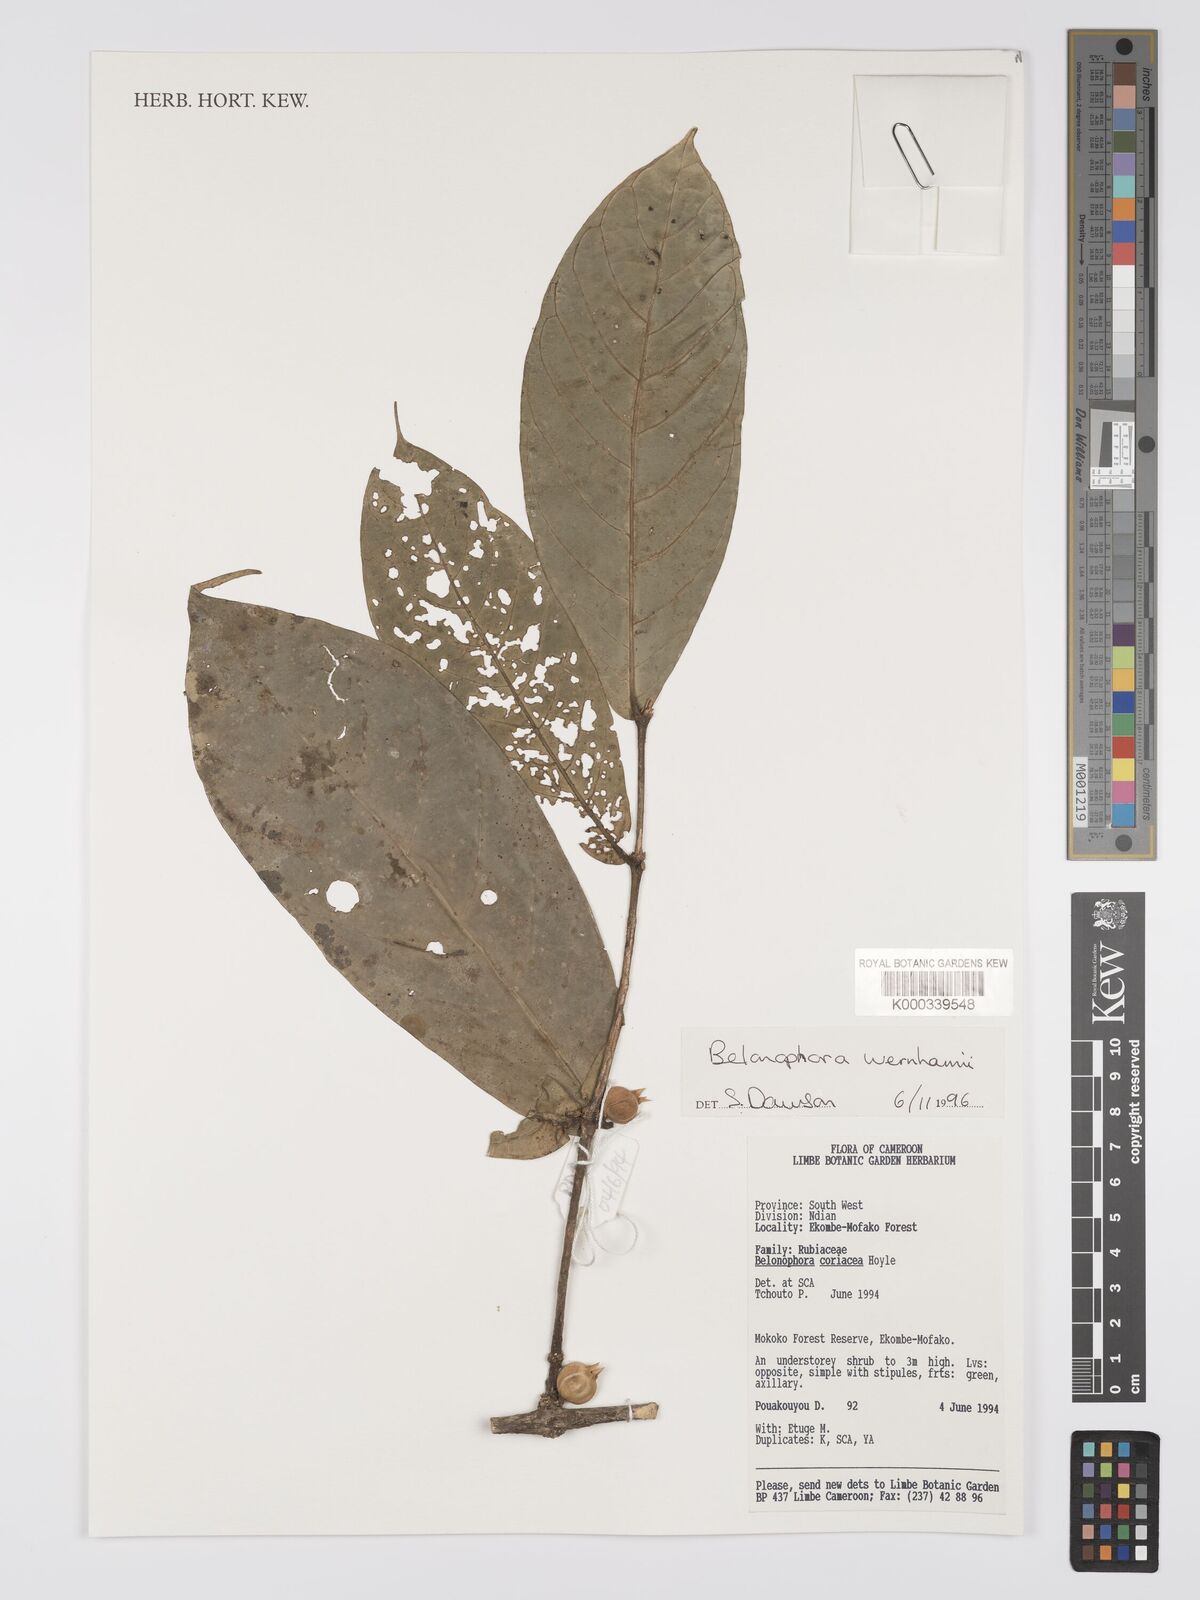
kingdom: Plantae
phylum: Tracheophyta
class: Magnoliopsida
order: Gentianales
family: Rubiaceae
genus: Belonophora
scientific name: Belonophora coriacea
